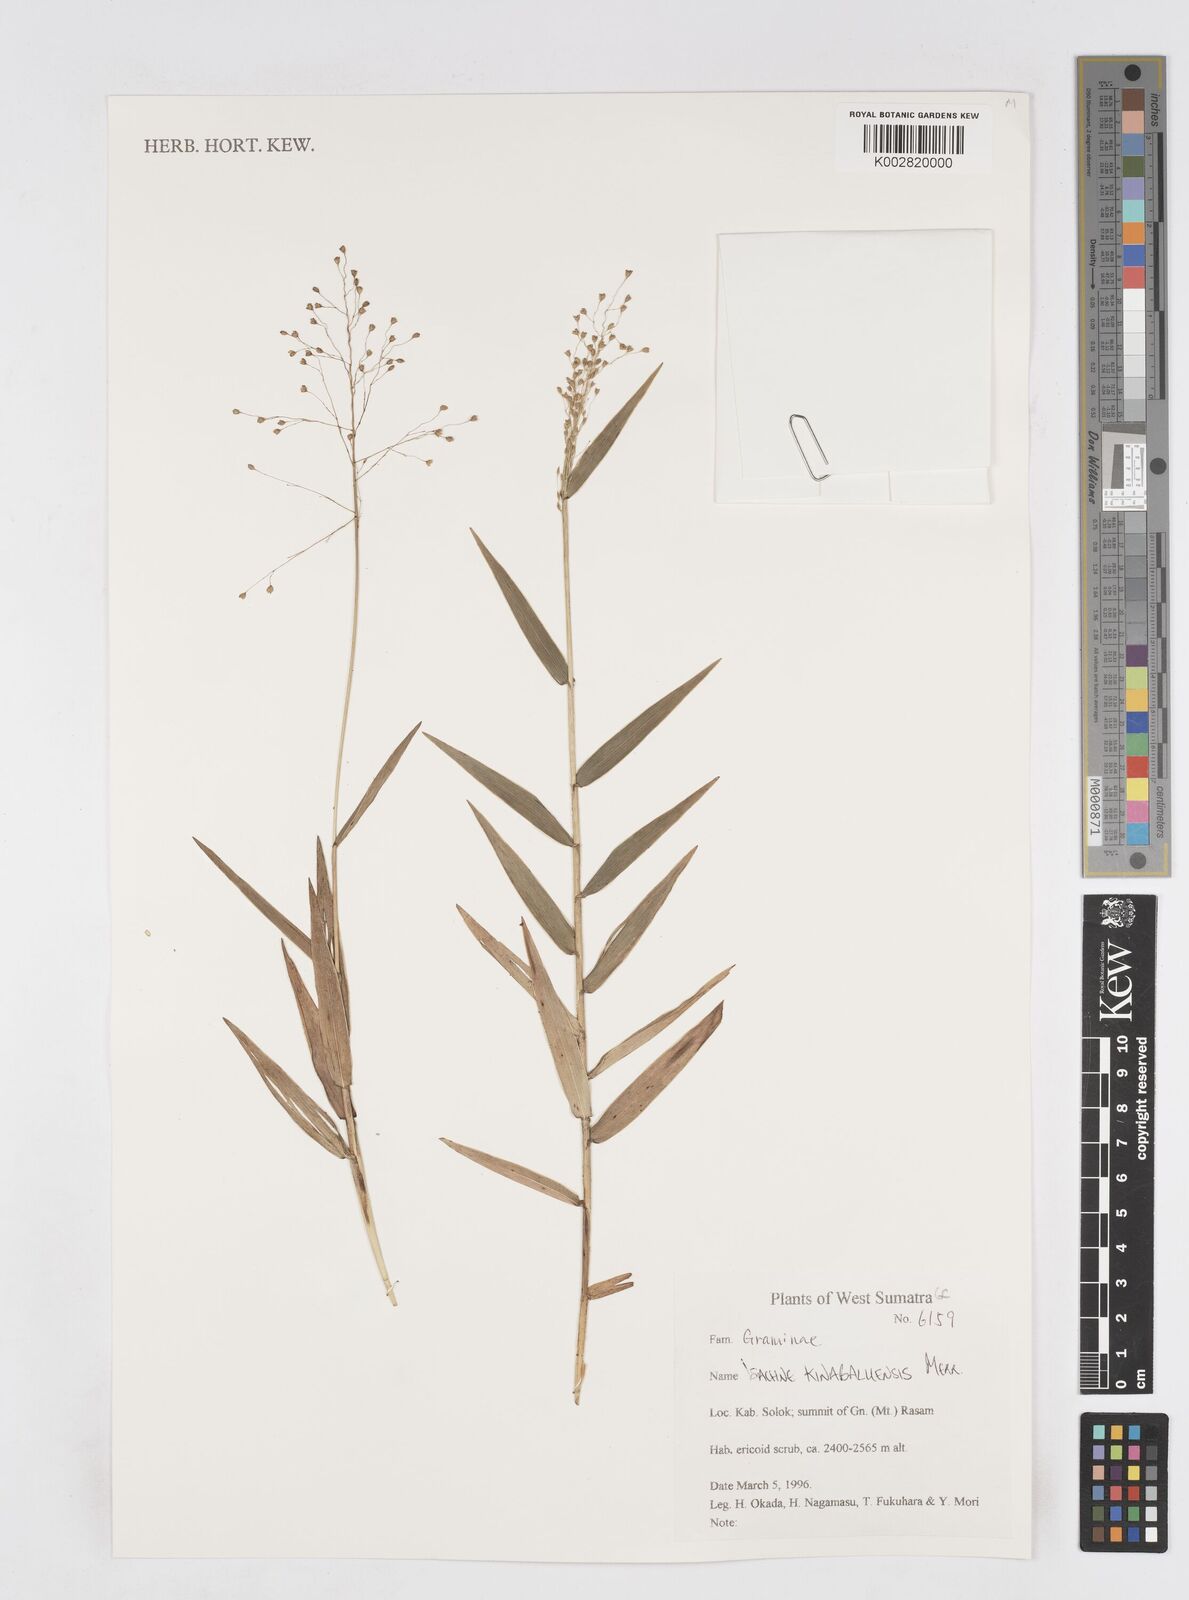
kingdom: Plantae
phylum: Tracheophyta
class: Liliopsida
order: Poales
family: Poaceae
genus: Isachne
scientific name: Isachne kinabaluensis
